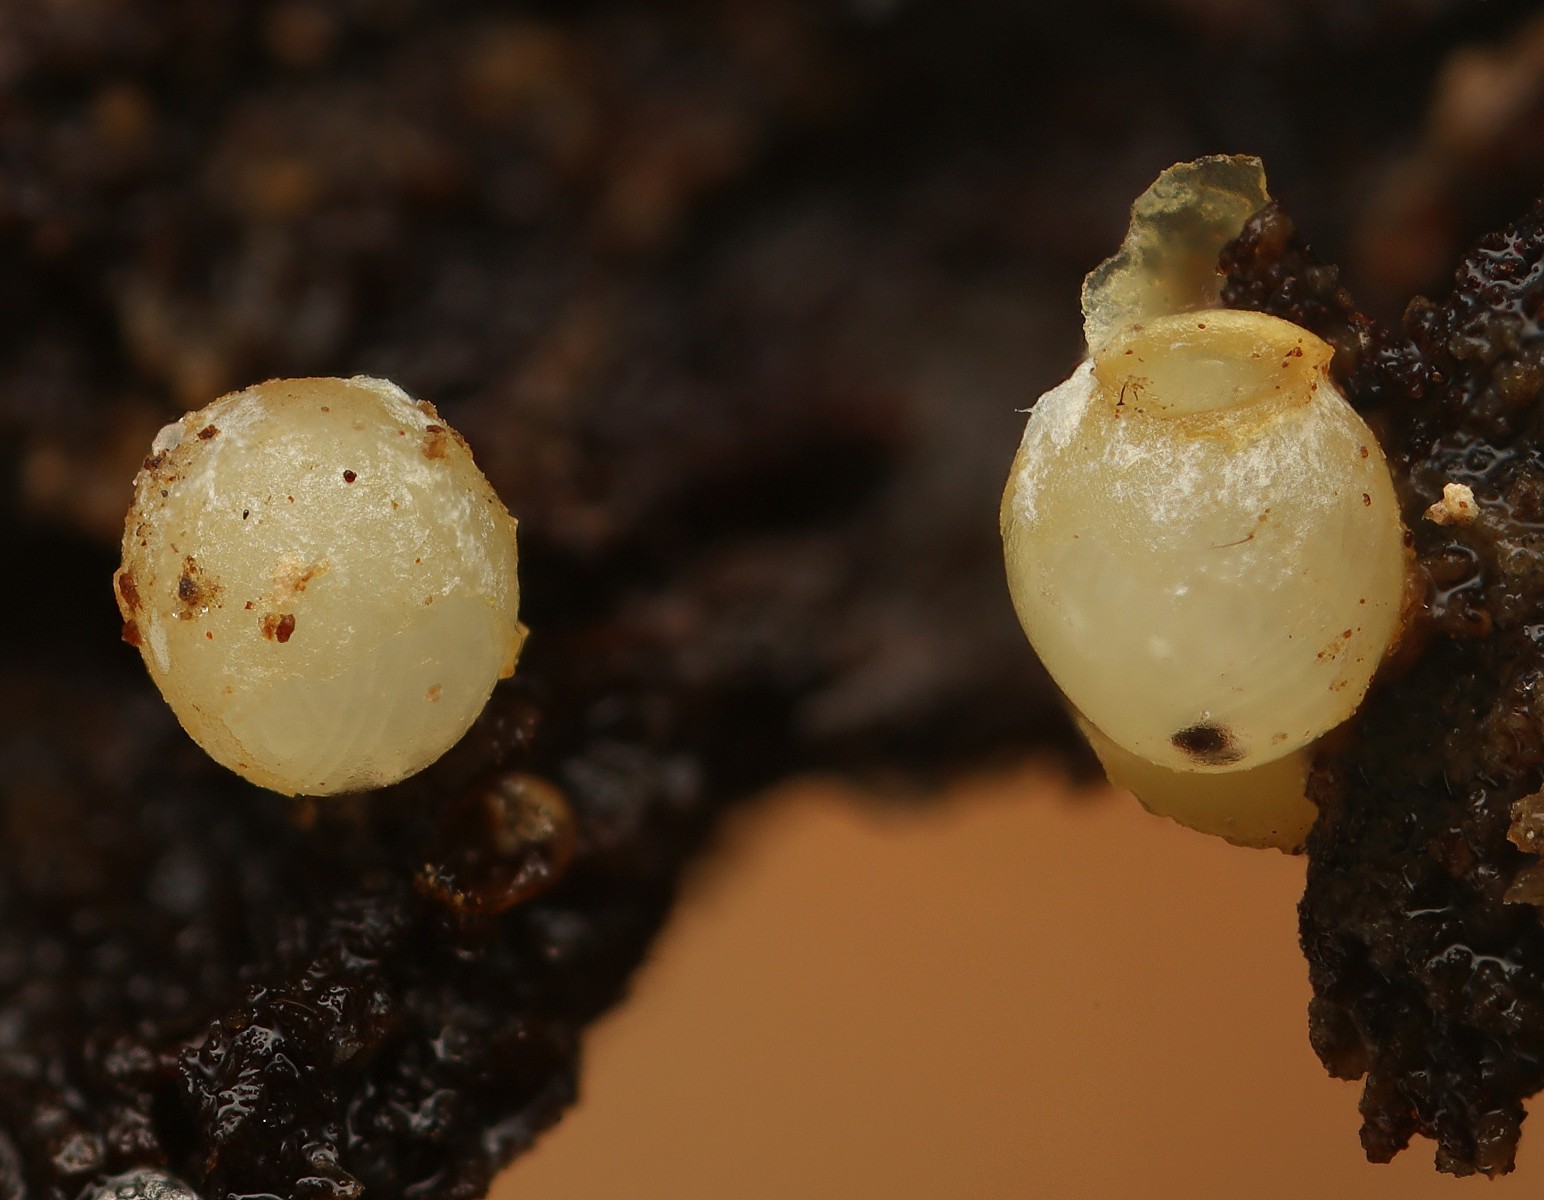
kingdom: Fungi
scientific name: Fungi
